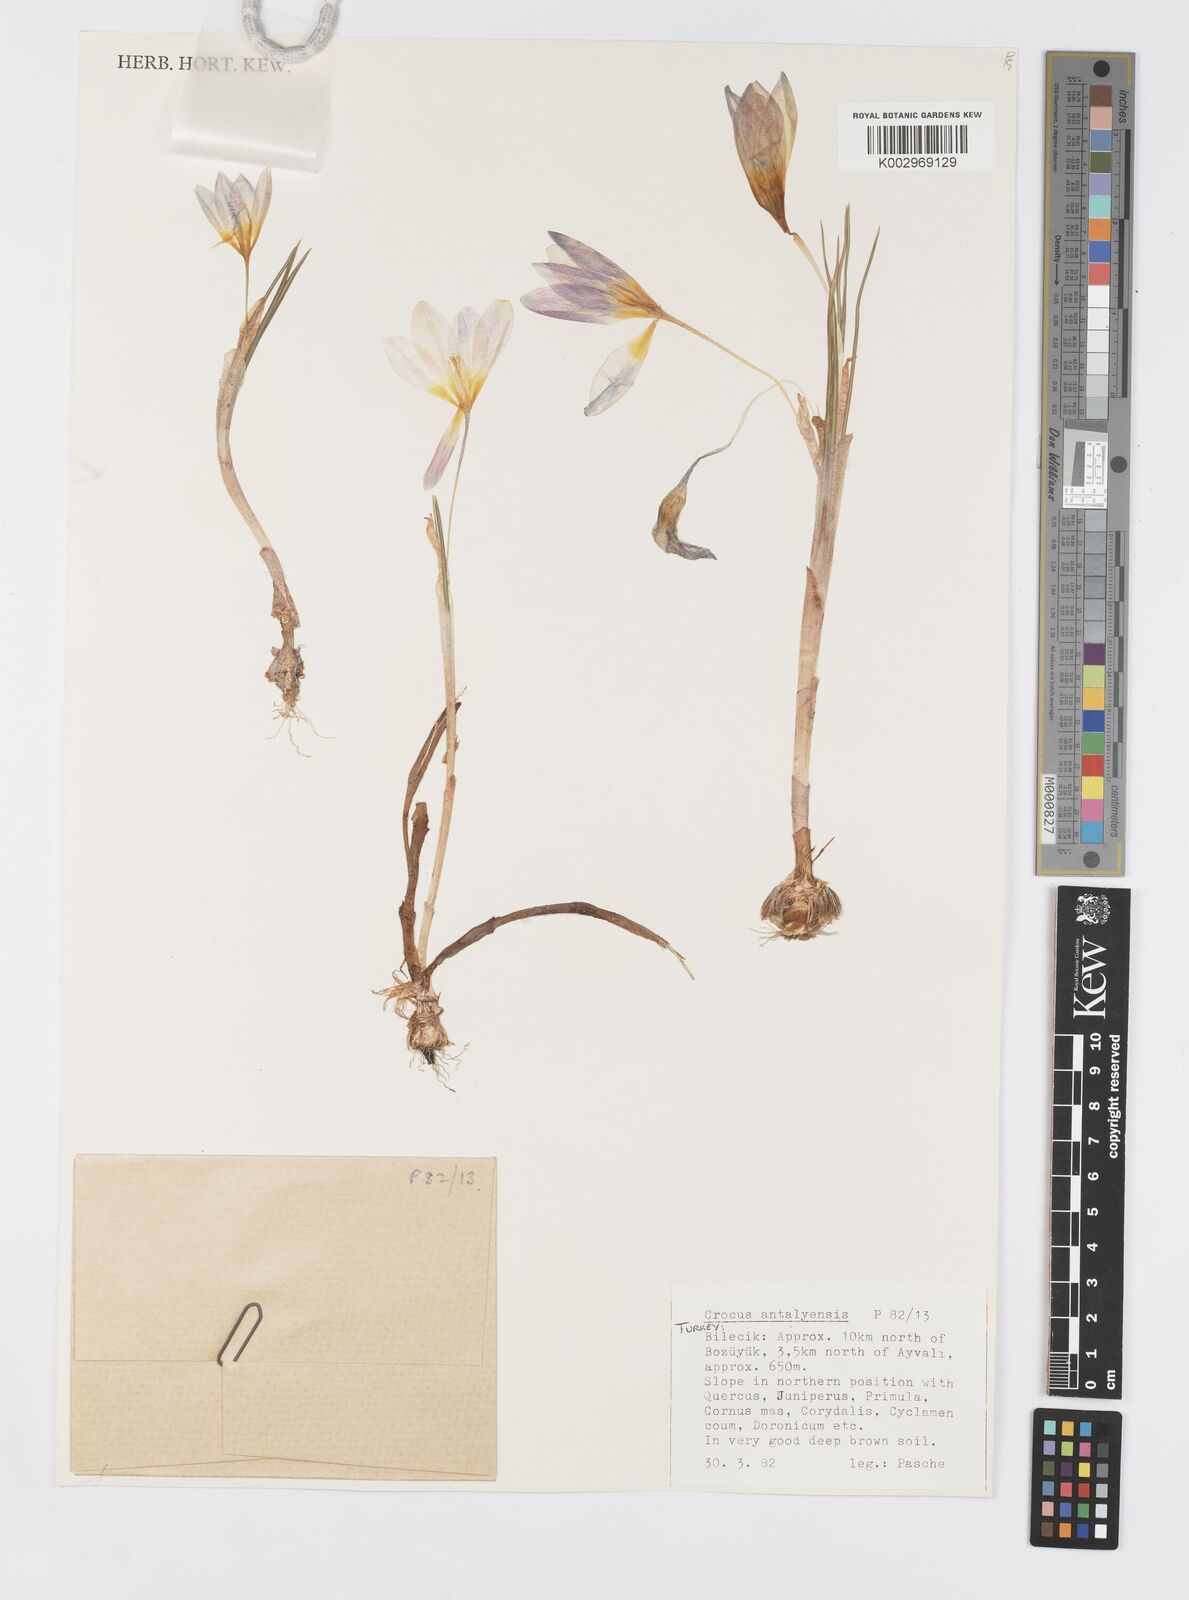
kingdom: Plantae
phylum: Tracheophyta
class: Liliopsida
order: Asparagales
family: Iridaceae
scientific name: Iridaceae
